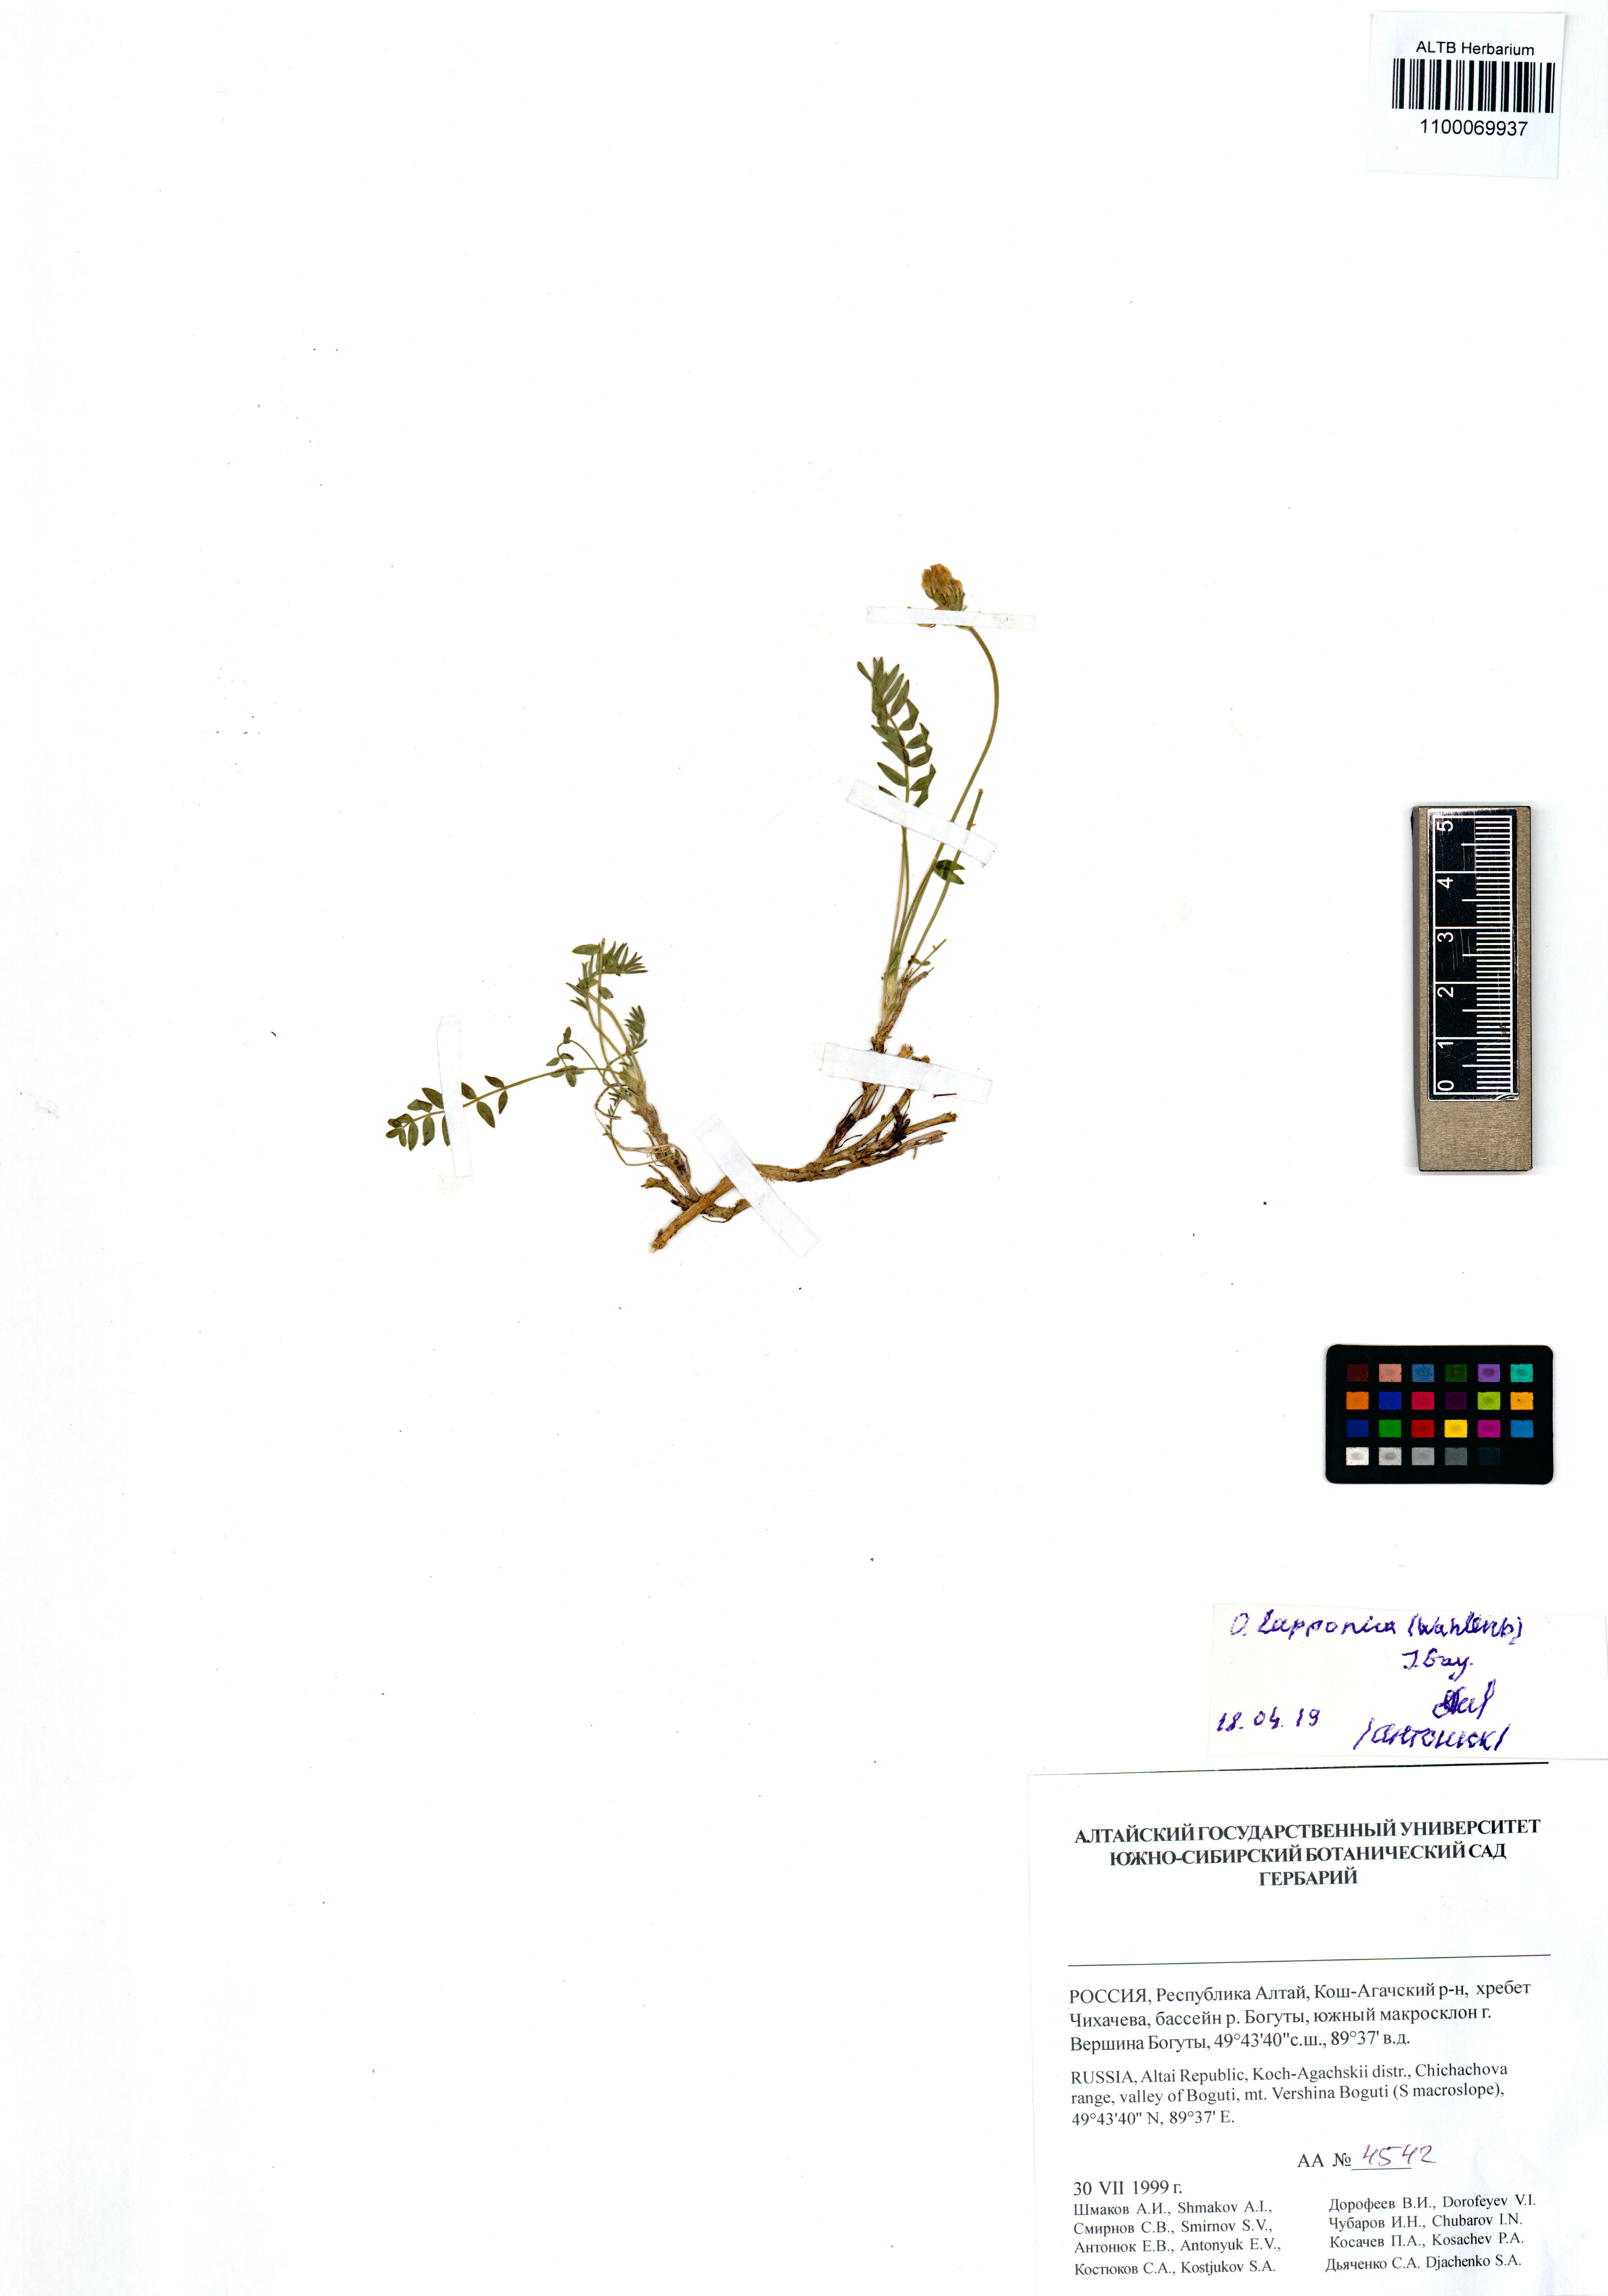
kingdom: Plantae
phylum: Tracheophyta
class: Magnoliopsida
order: Fabales
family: Fabaceae
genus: Oxytropis
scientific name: Oxytropis lapponica
